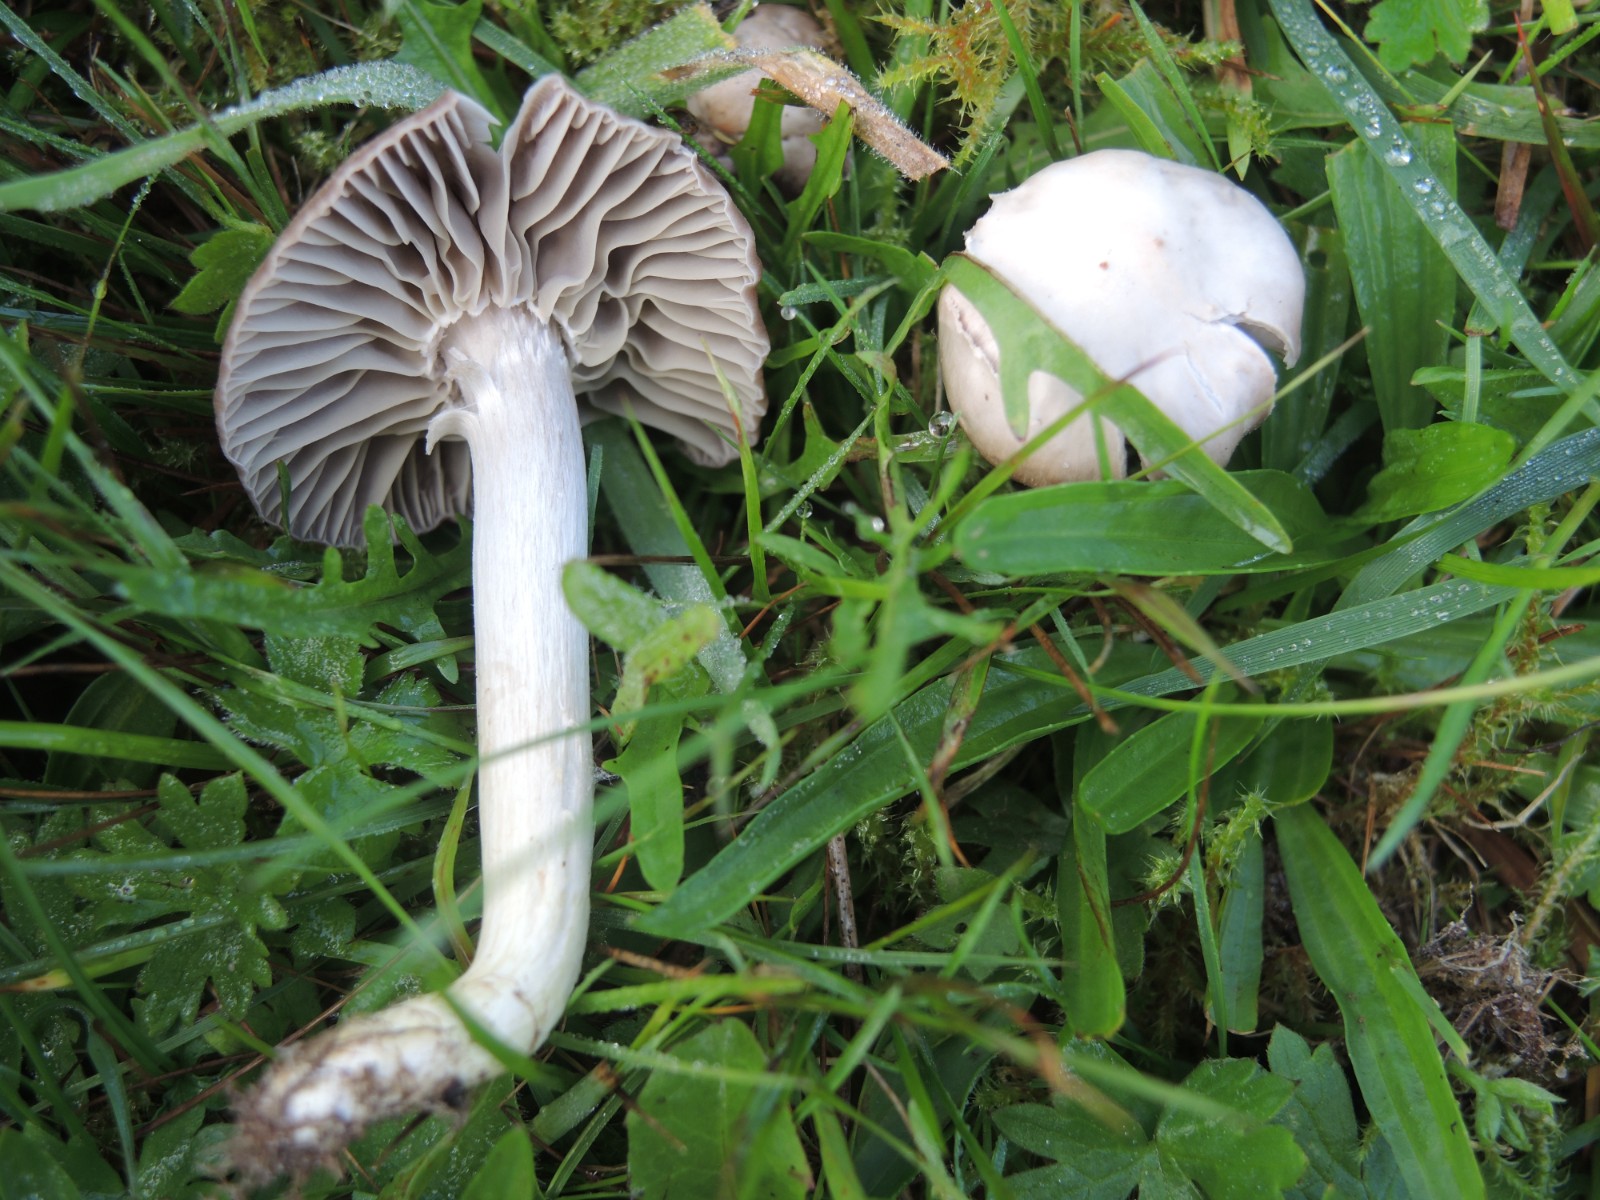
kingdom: Fungi
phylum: Basidiomycota
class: Agaricomycetes
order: Agaricales
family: Hygrophoraceae
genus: Cuphophyllus
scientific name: Cuphophyllus flavipes
